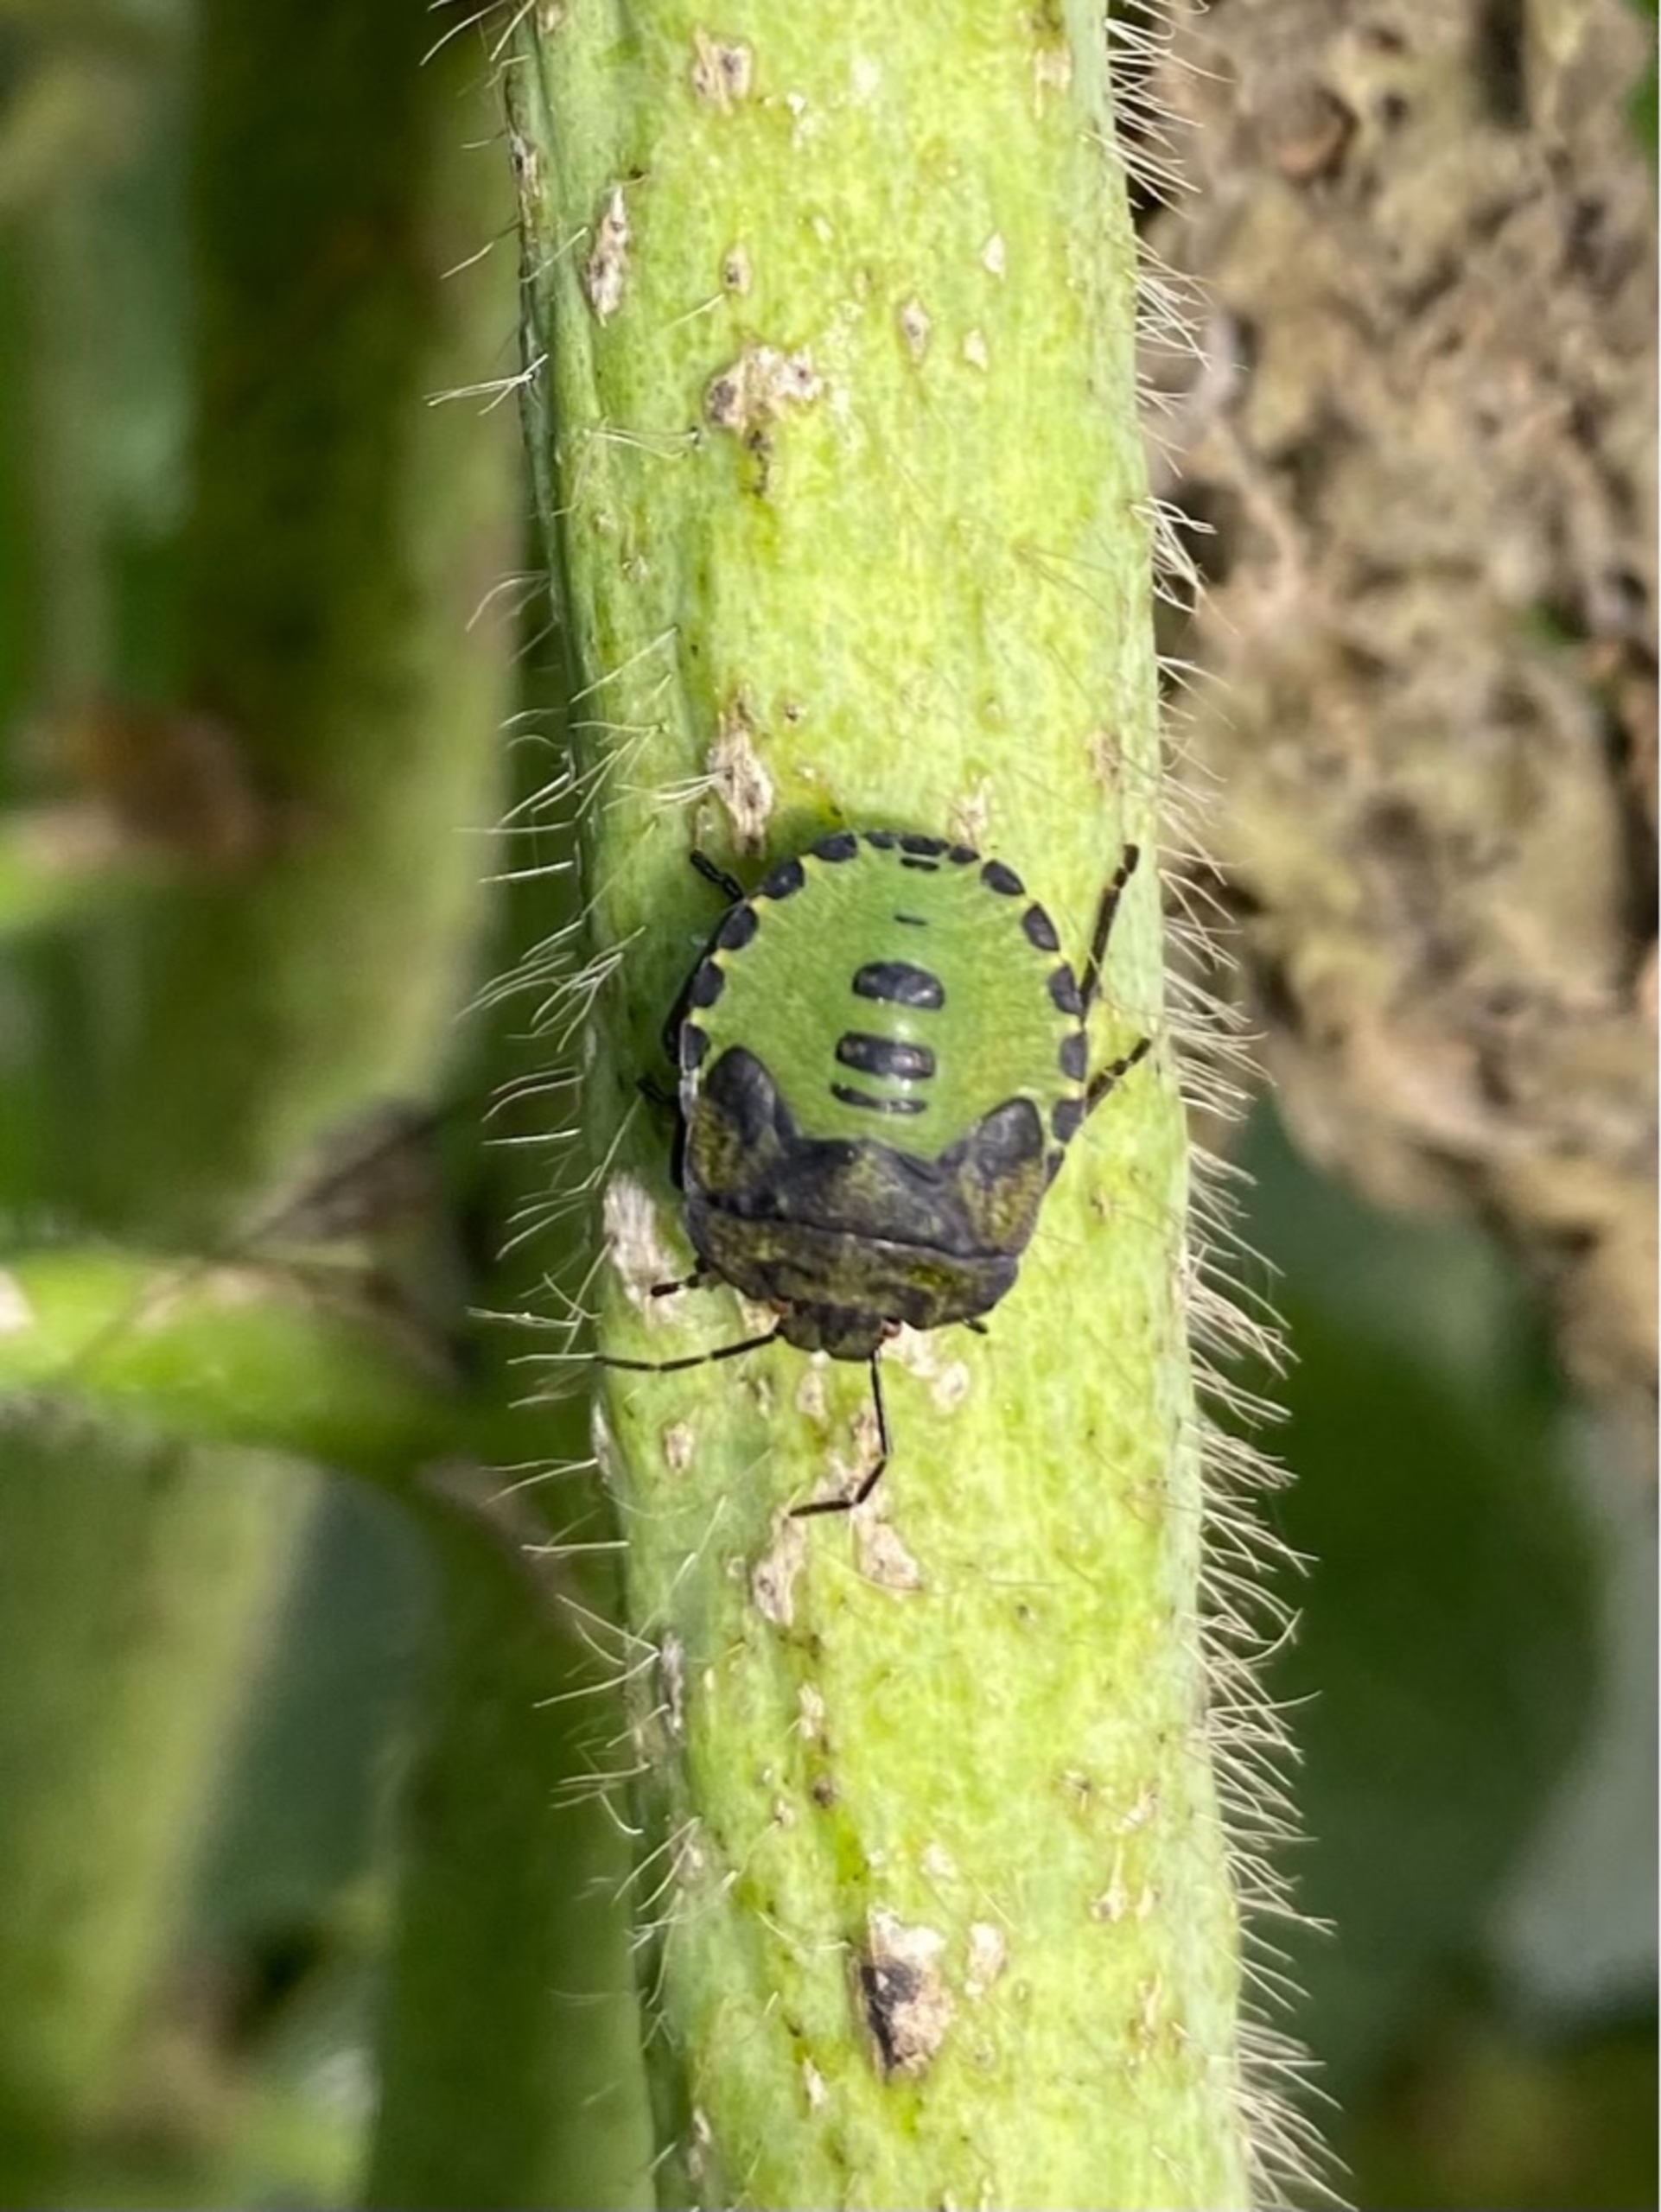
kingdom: Animalia
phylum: Arthropoda
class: Insecta
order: Hemiptera
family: Pentatomidae
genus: Palomena
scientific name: Palomena prasina
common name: Grøn bredtæge
